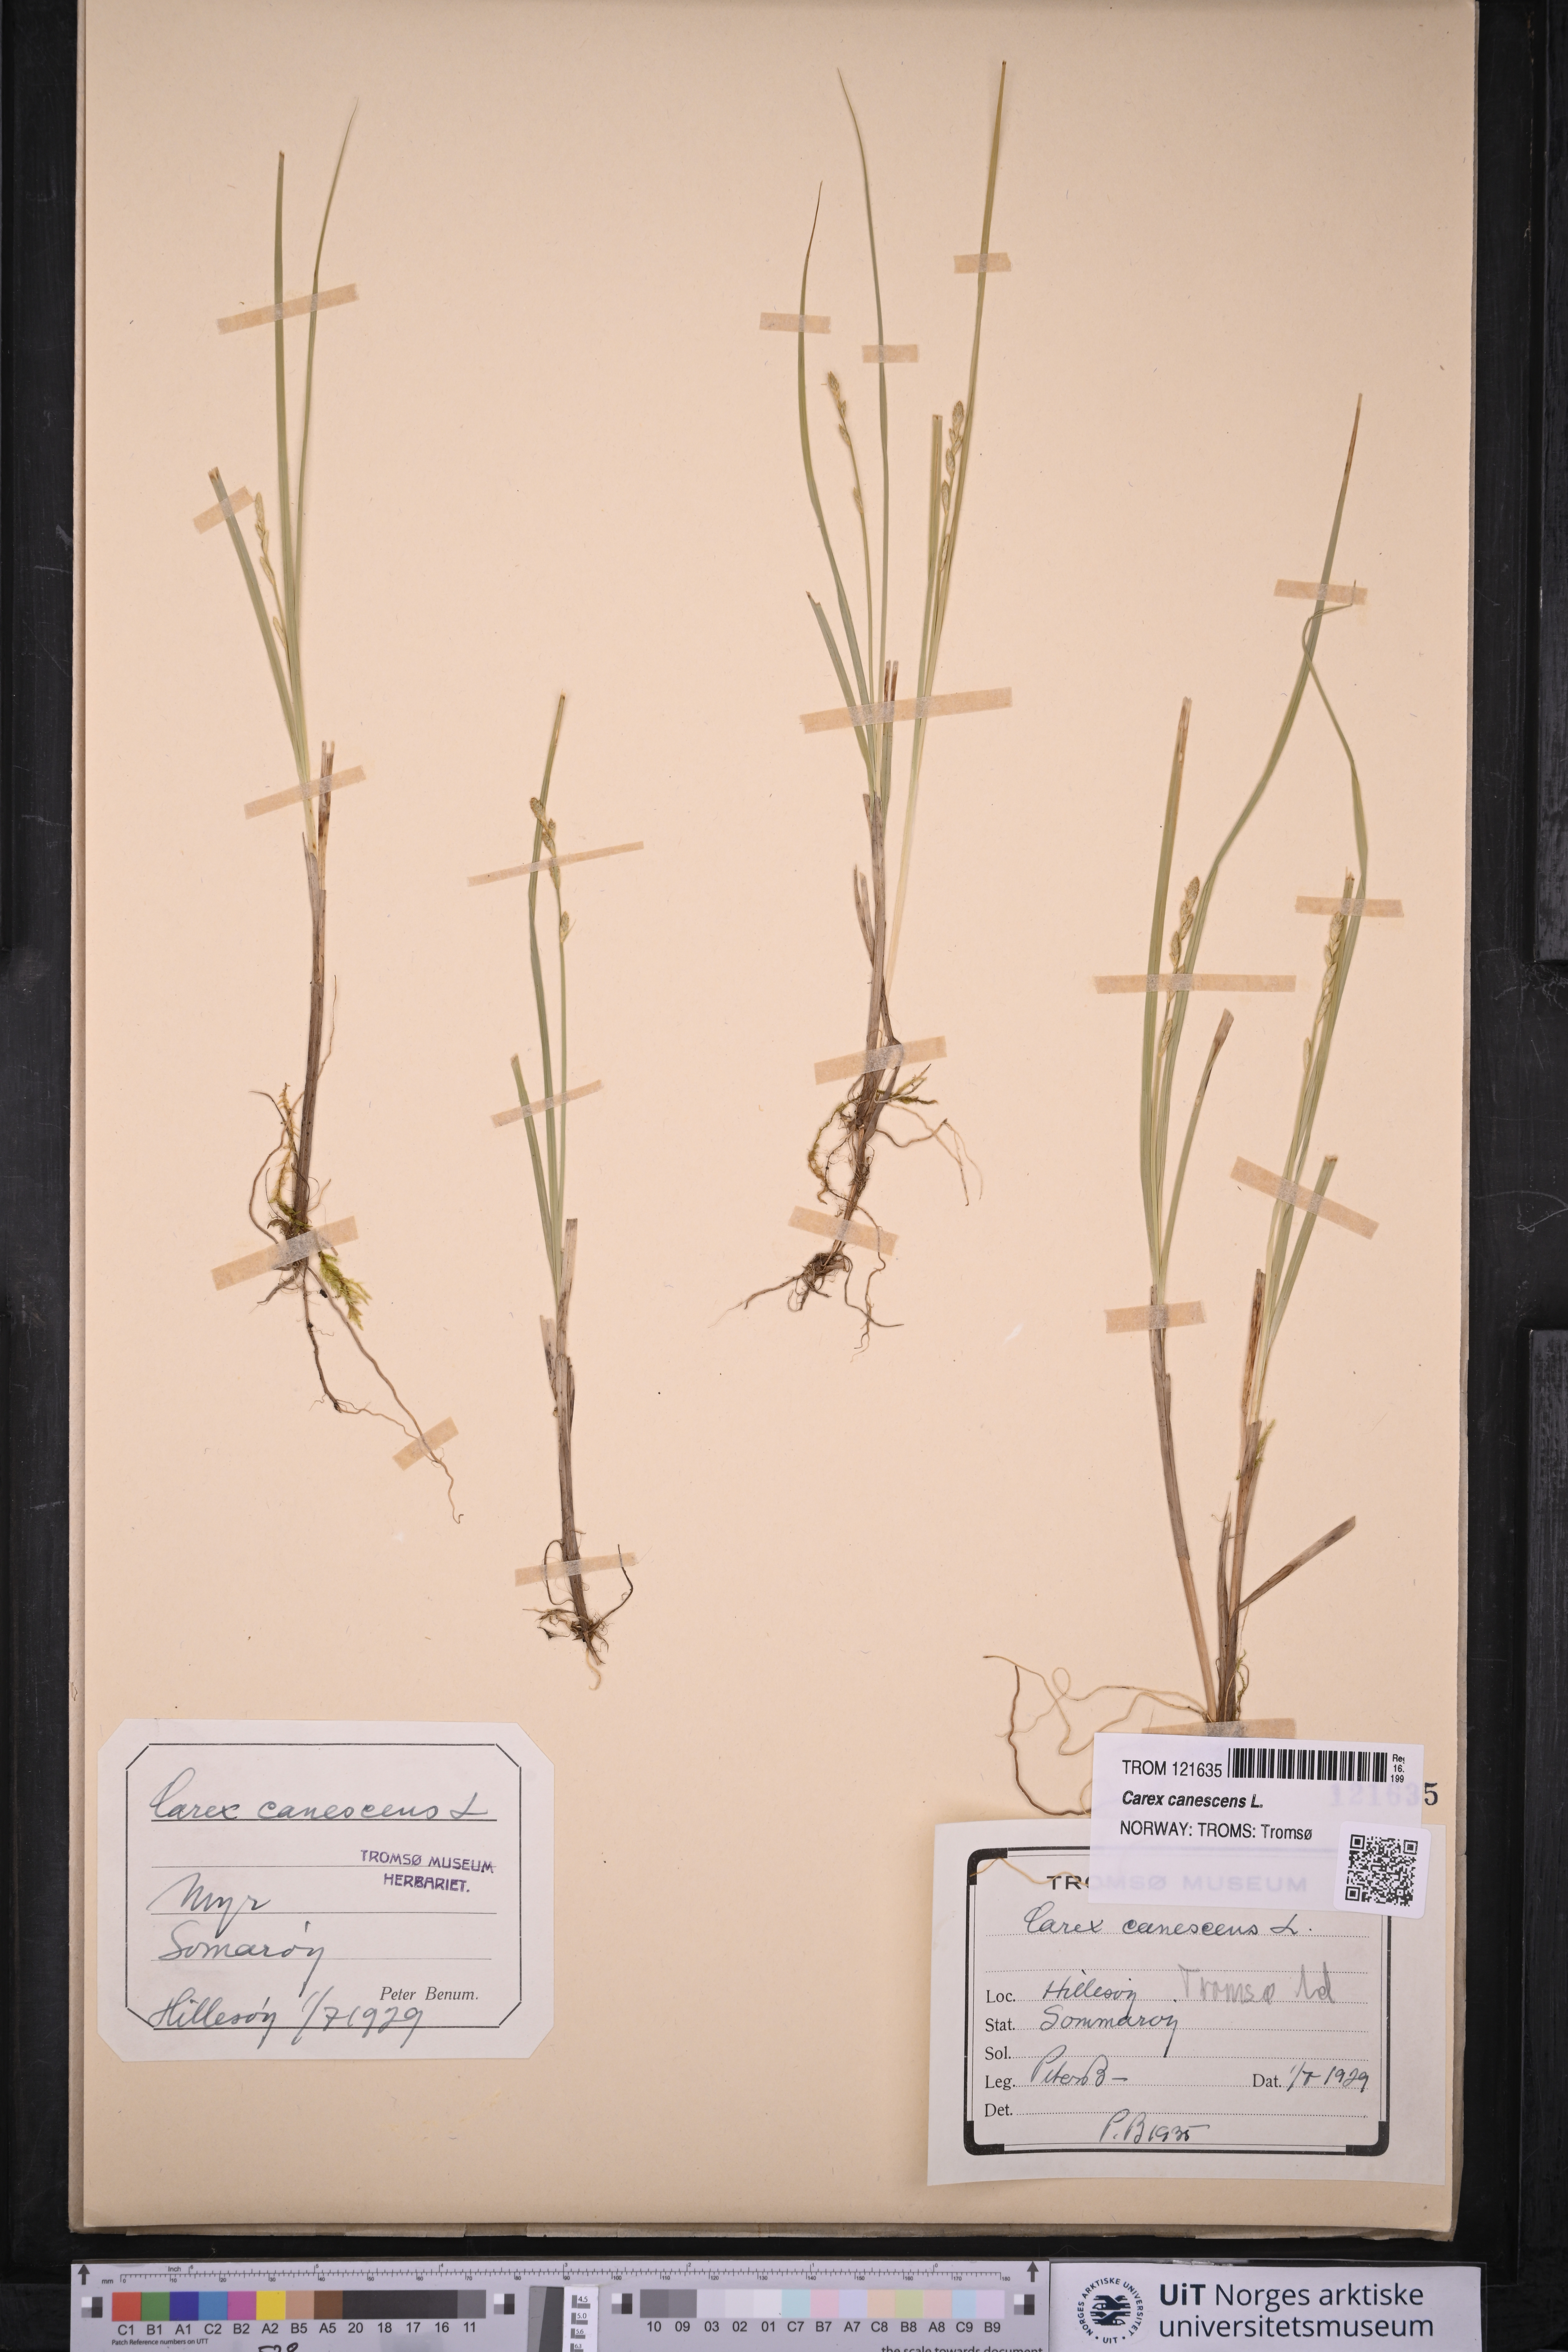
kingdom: Plantae
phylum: Tracheophyta
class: Liliopsida
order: Poales
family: Cyperaceae
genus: Carex
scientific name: Carex canescens
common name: White sedge
